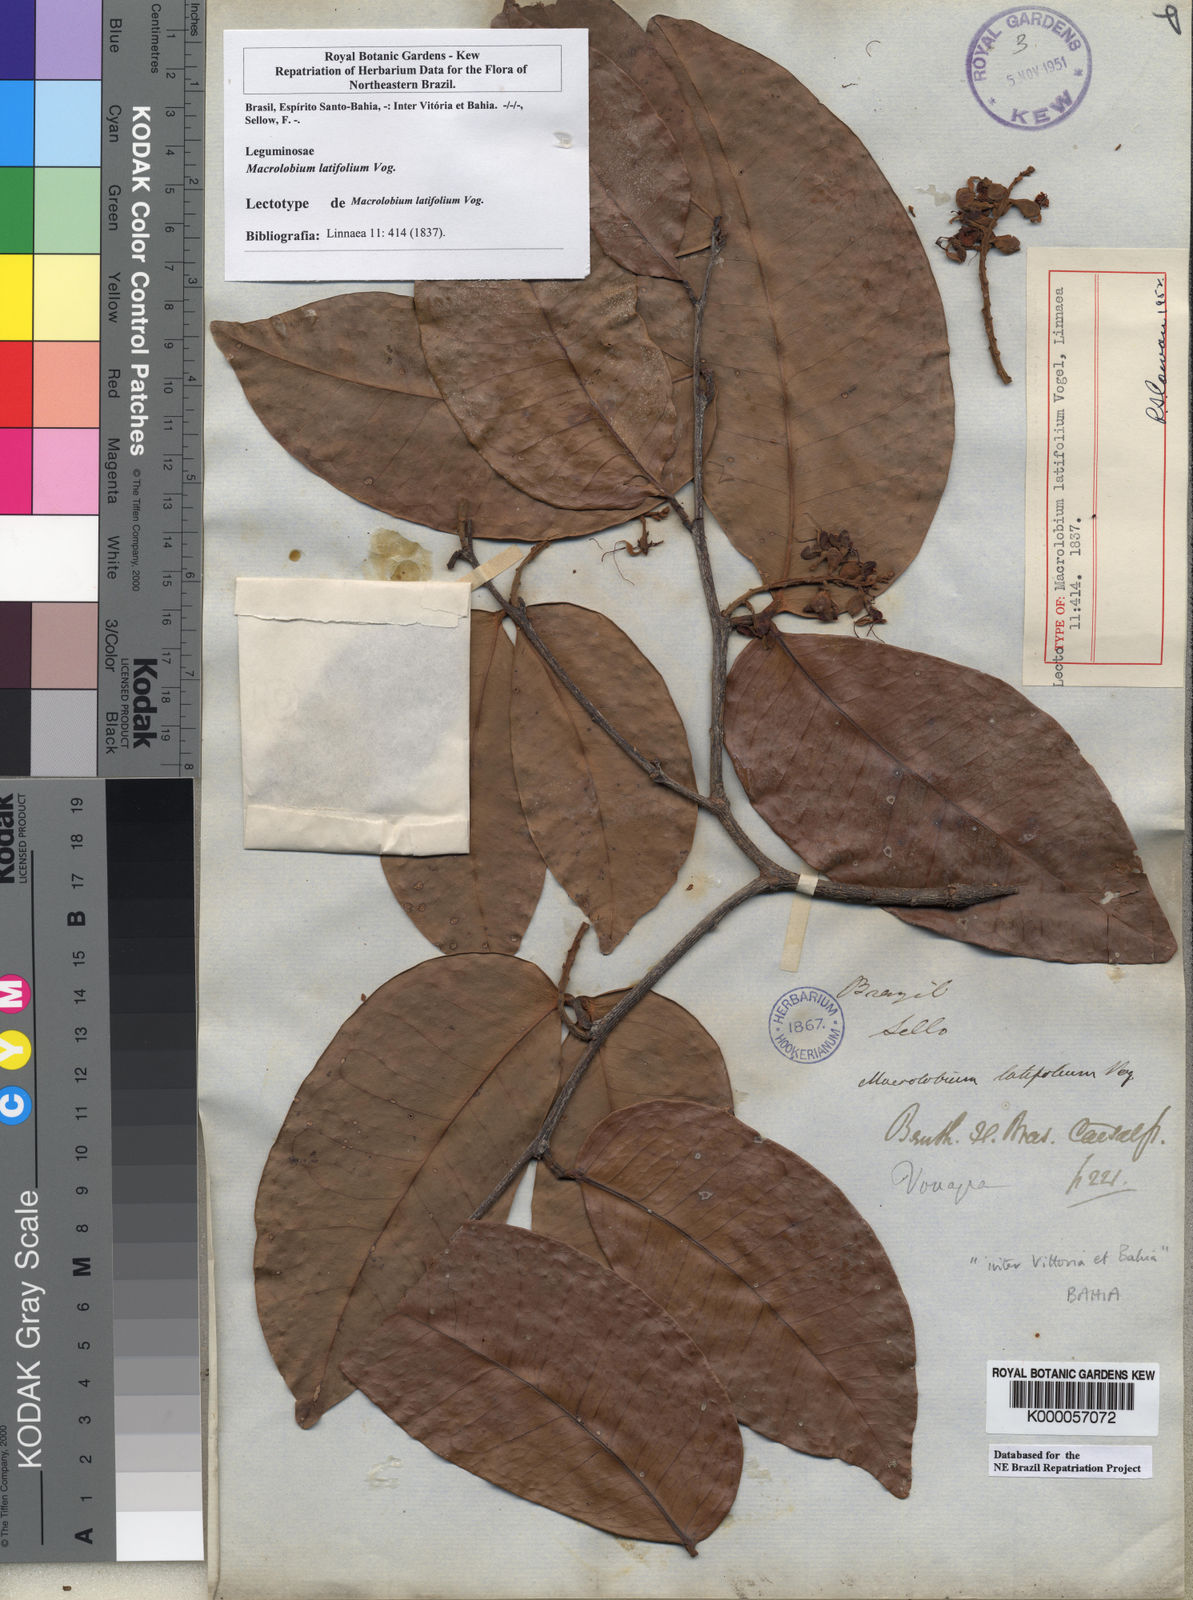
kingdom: Plantae
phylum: Tracheophyta
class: Magnoliopsida
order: Fabales
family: Fabaceae
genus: Macrolobium
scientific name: Macrolobium latifolium
